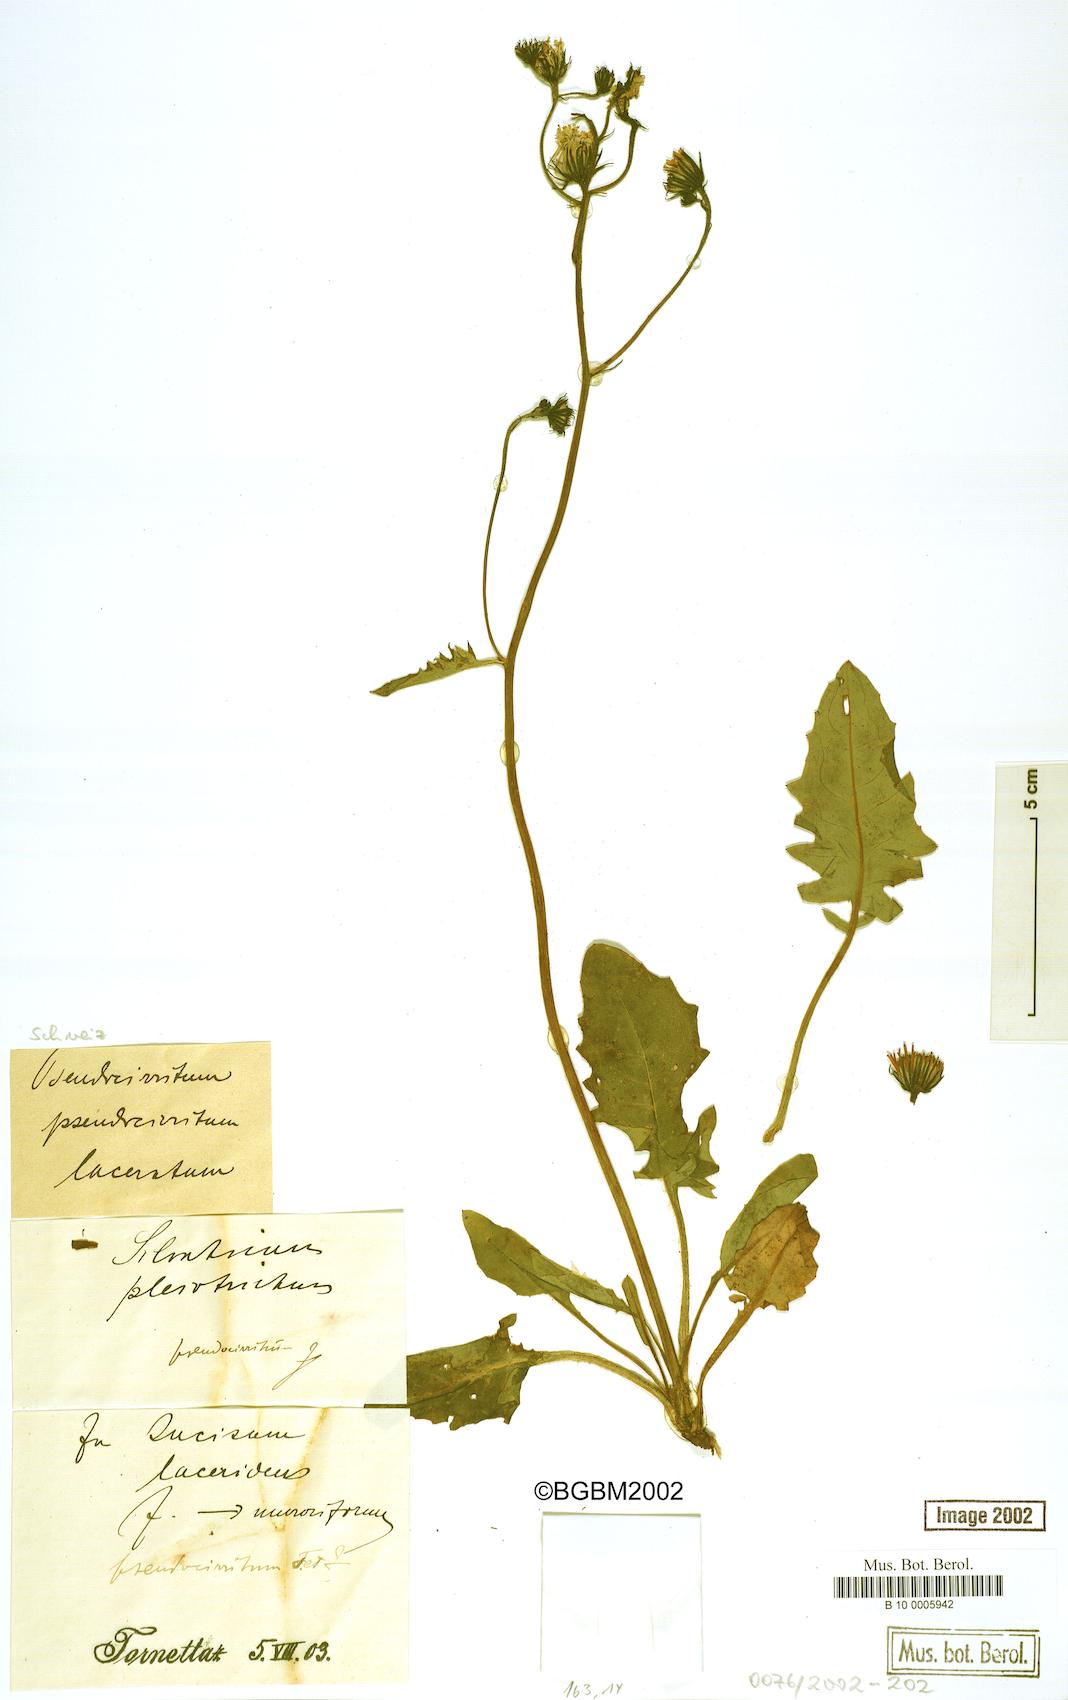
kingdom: Plantae
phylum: Tracheophyta
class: Magnoliopsida
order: Asterales
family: Asteraceae
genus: Hieracium
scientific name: Hieracium cirritum
